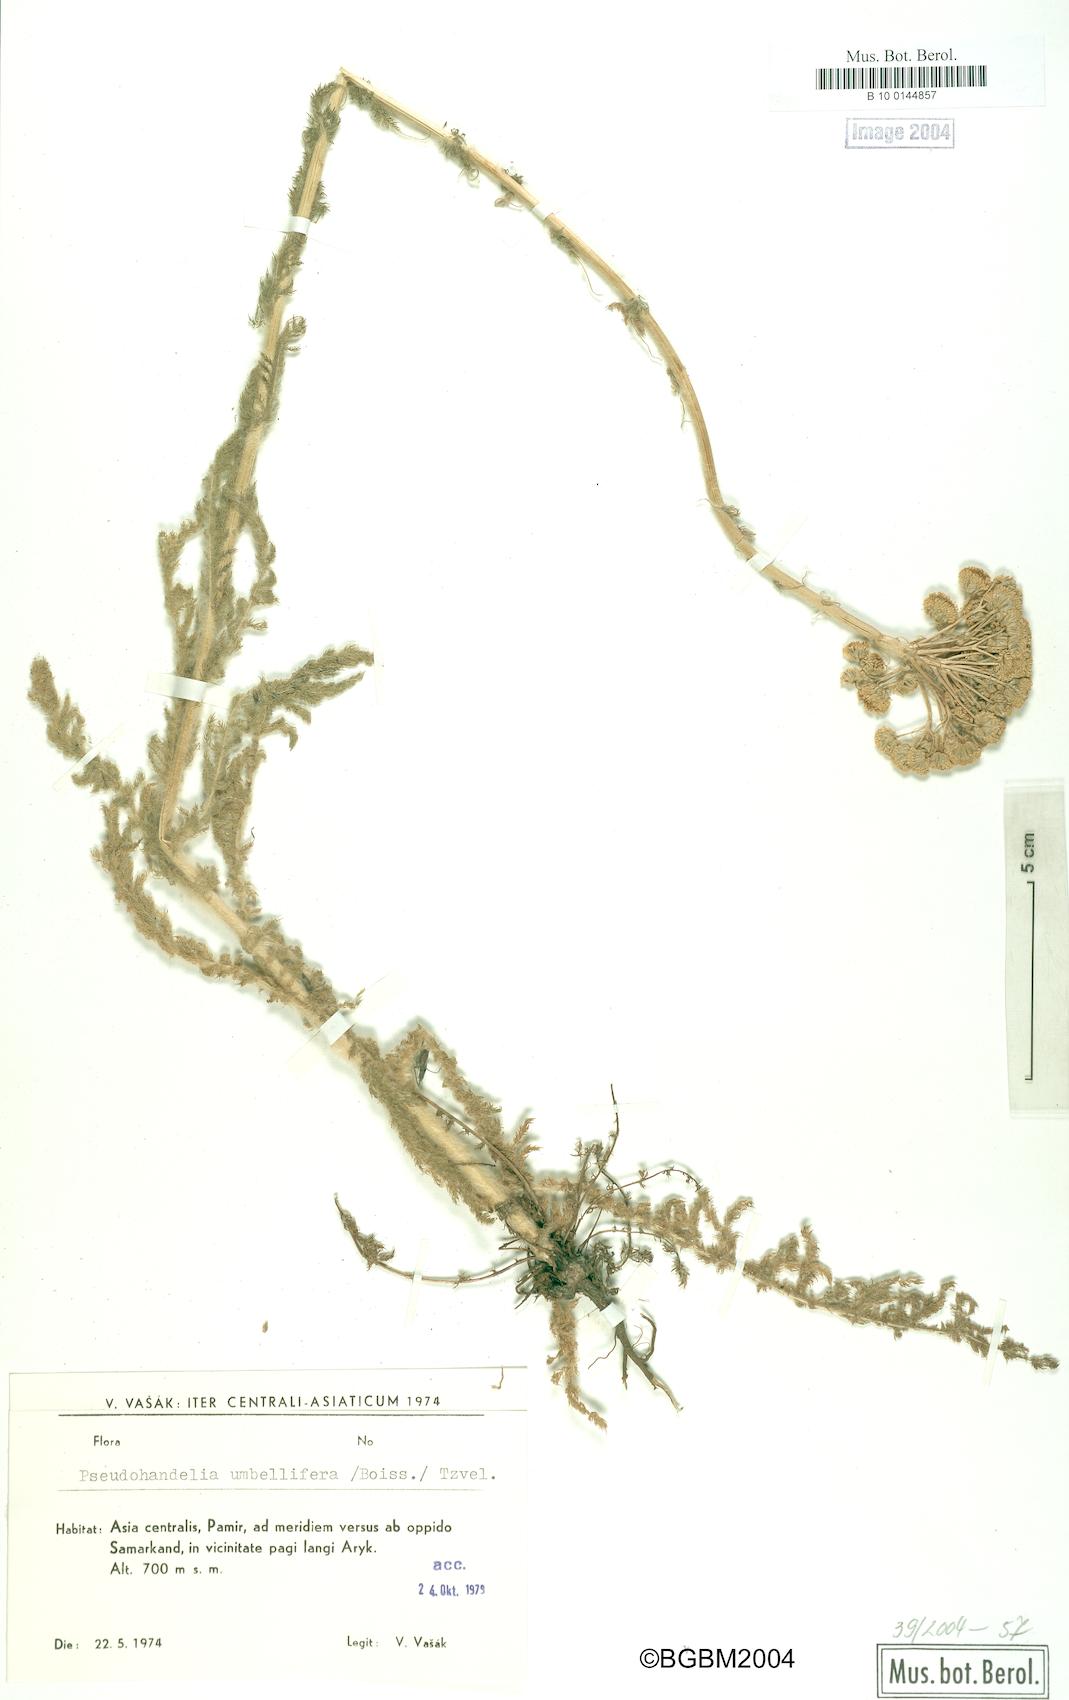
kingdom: Plantae
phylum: Tracheophyta
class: Magnoliopsida
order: Asterales
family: Asteraceae
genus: Pseudohandelia
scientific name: Pseudohandelia umbellifera
